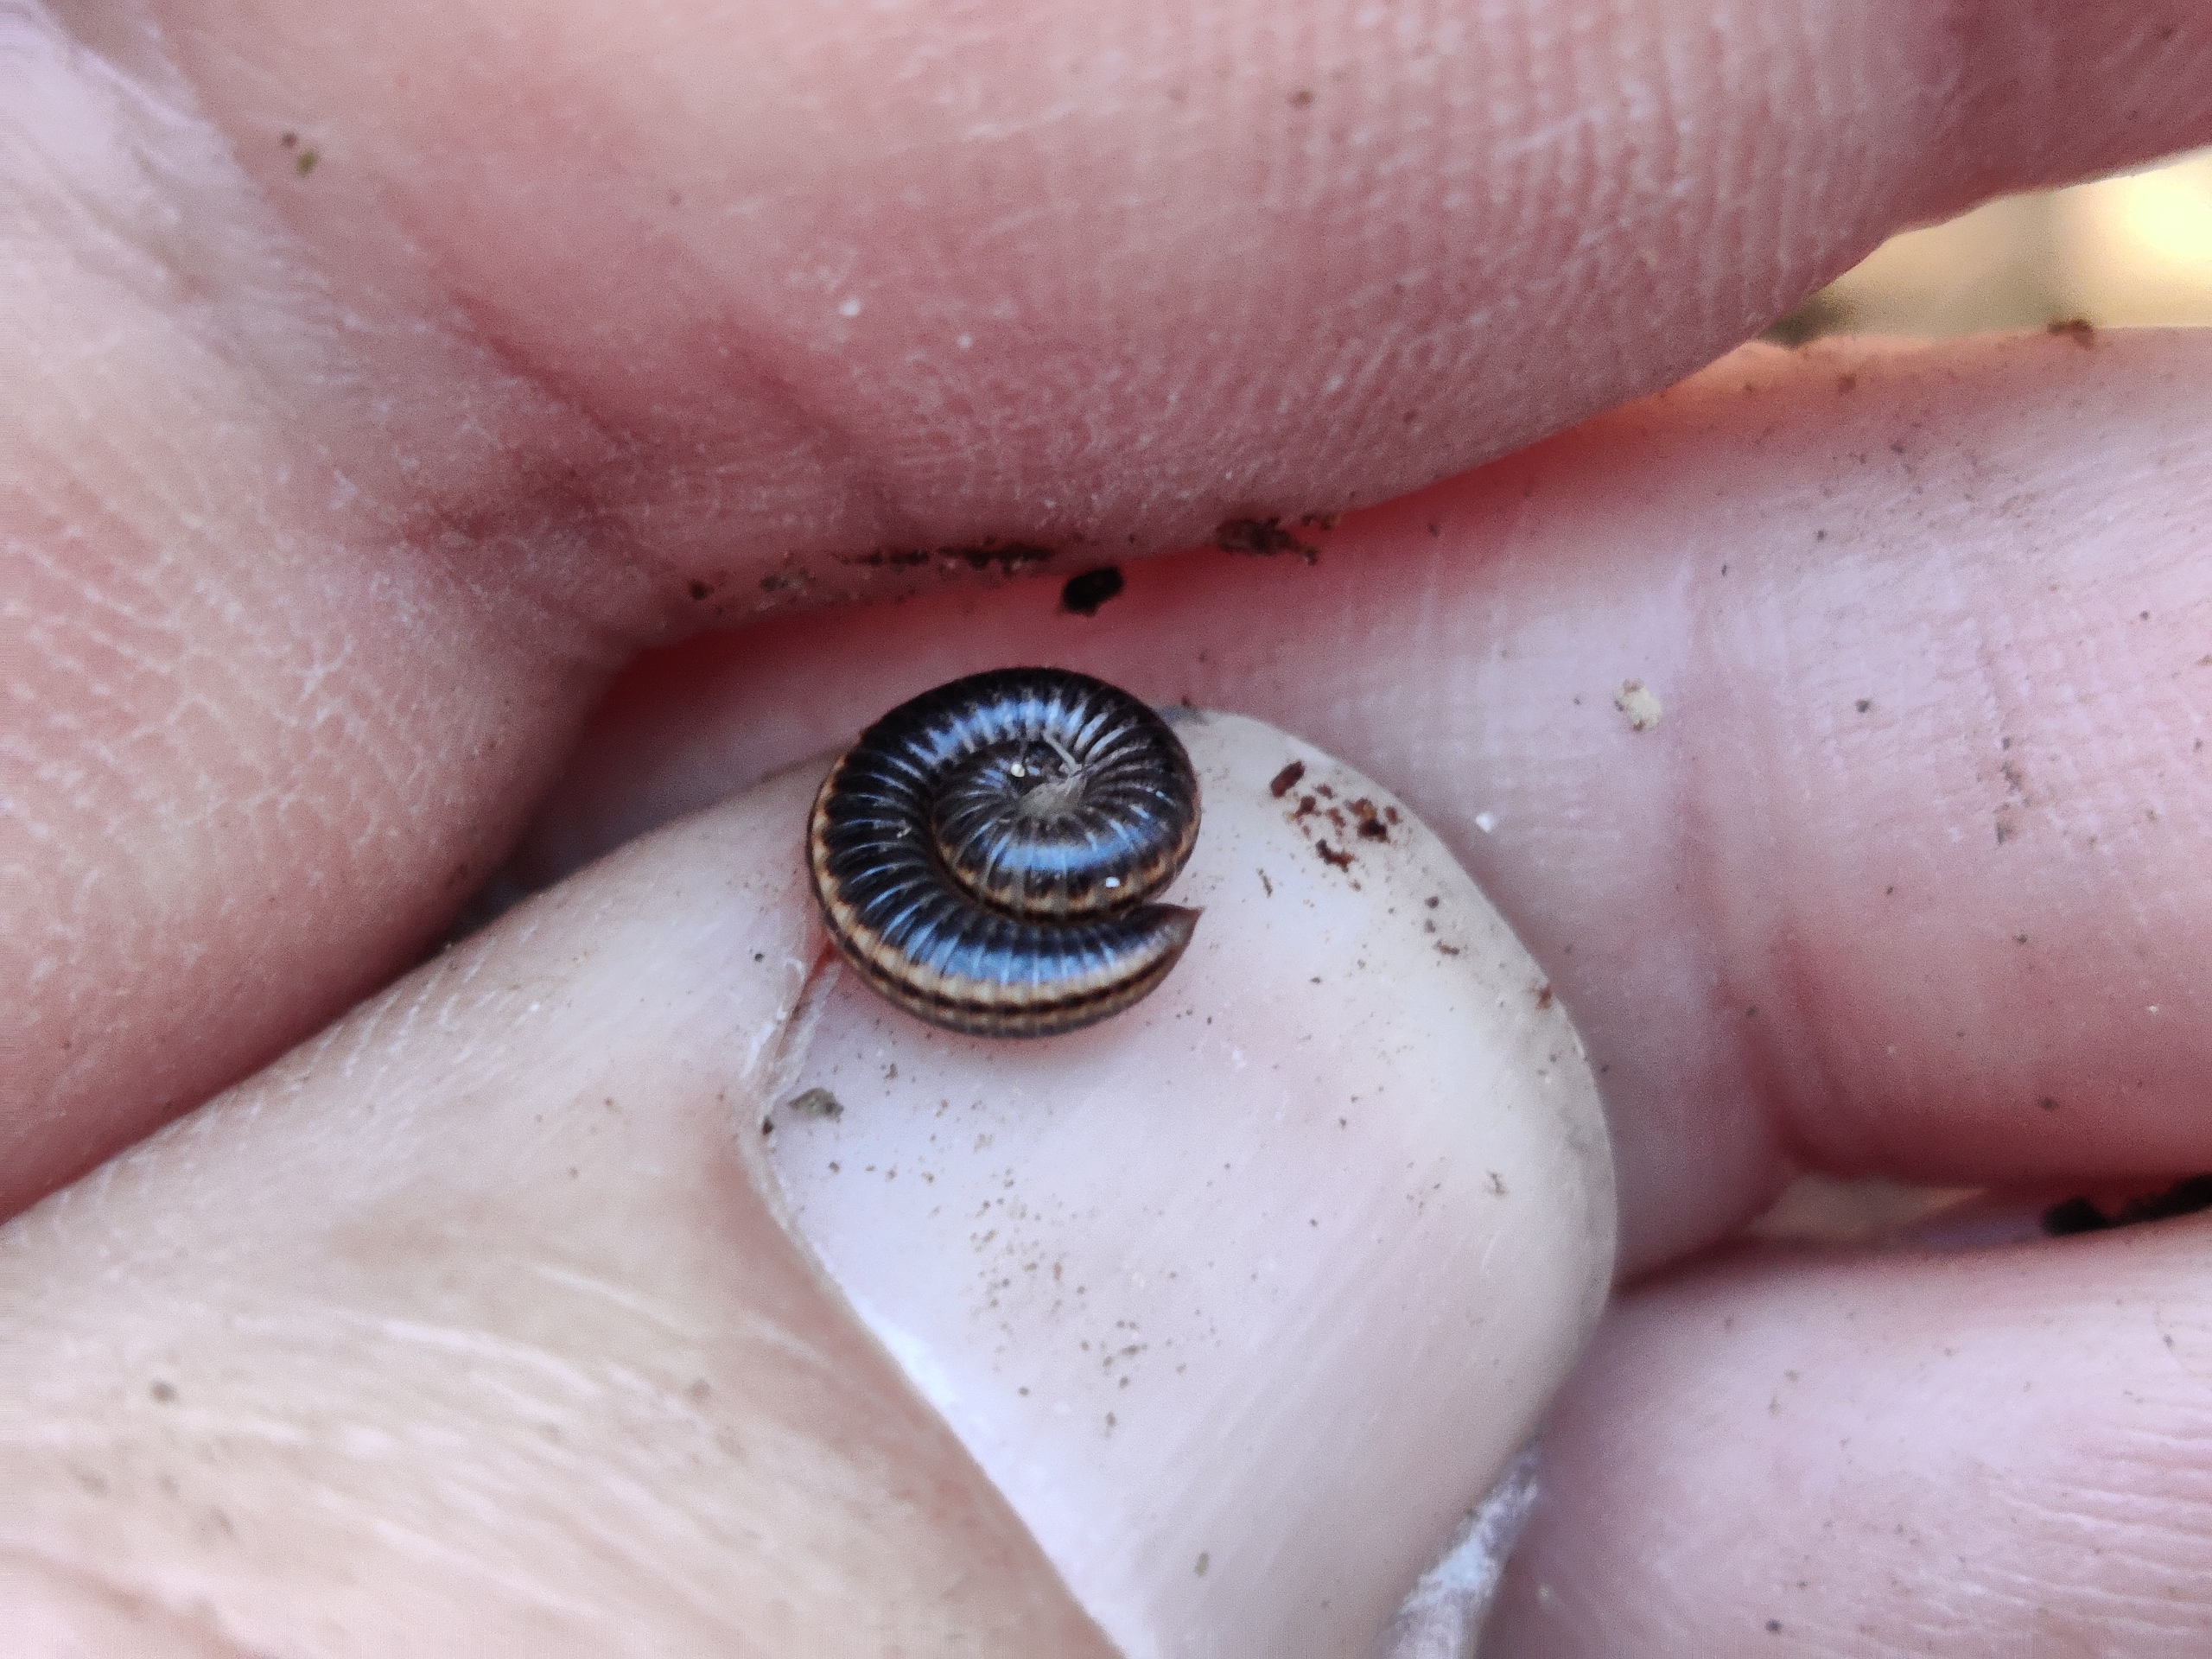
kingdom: Animalia
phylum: Arthropoda
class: Diplopoda
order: Julida
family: Julidae
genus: Ommatoiulus
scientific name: Ommatoiulus sabulosus
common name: Stor bånd-tusindben
